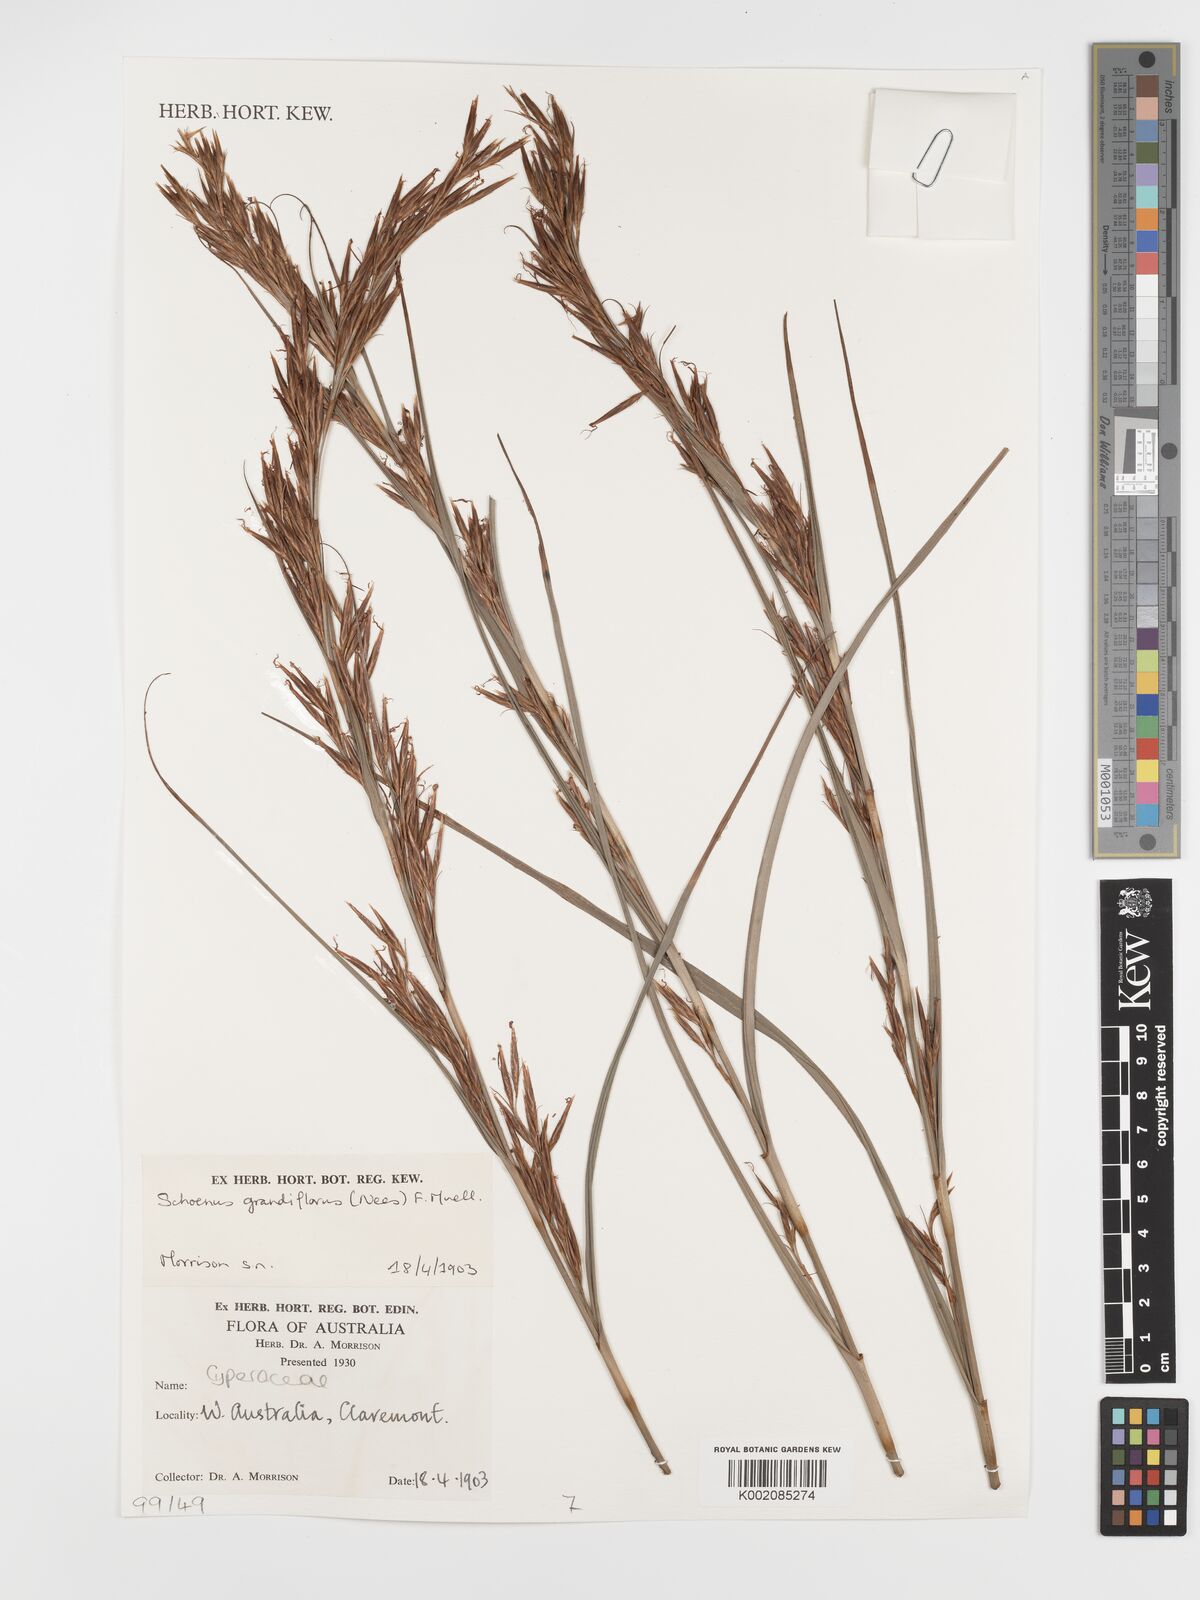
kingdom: Plantae
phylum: Tracheophyta
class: Liliopsida
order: Poales
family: Cyperaceae
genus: Schoenus
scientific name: Schoenus grandiflorus
